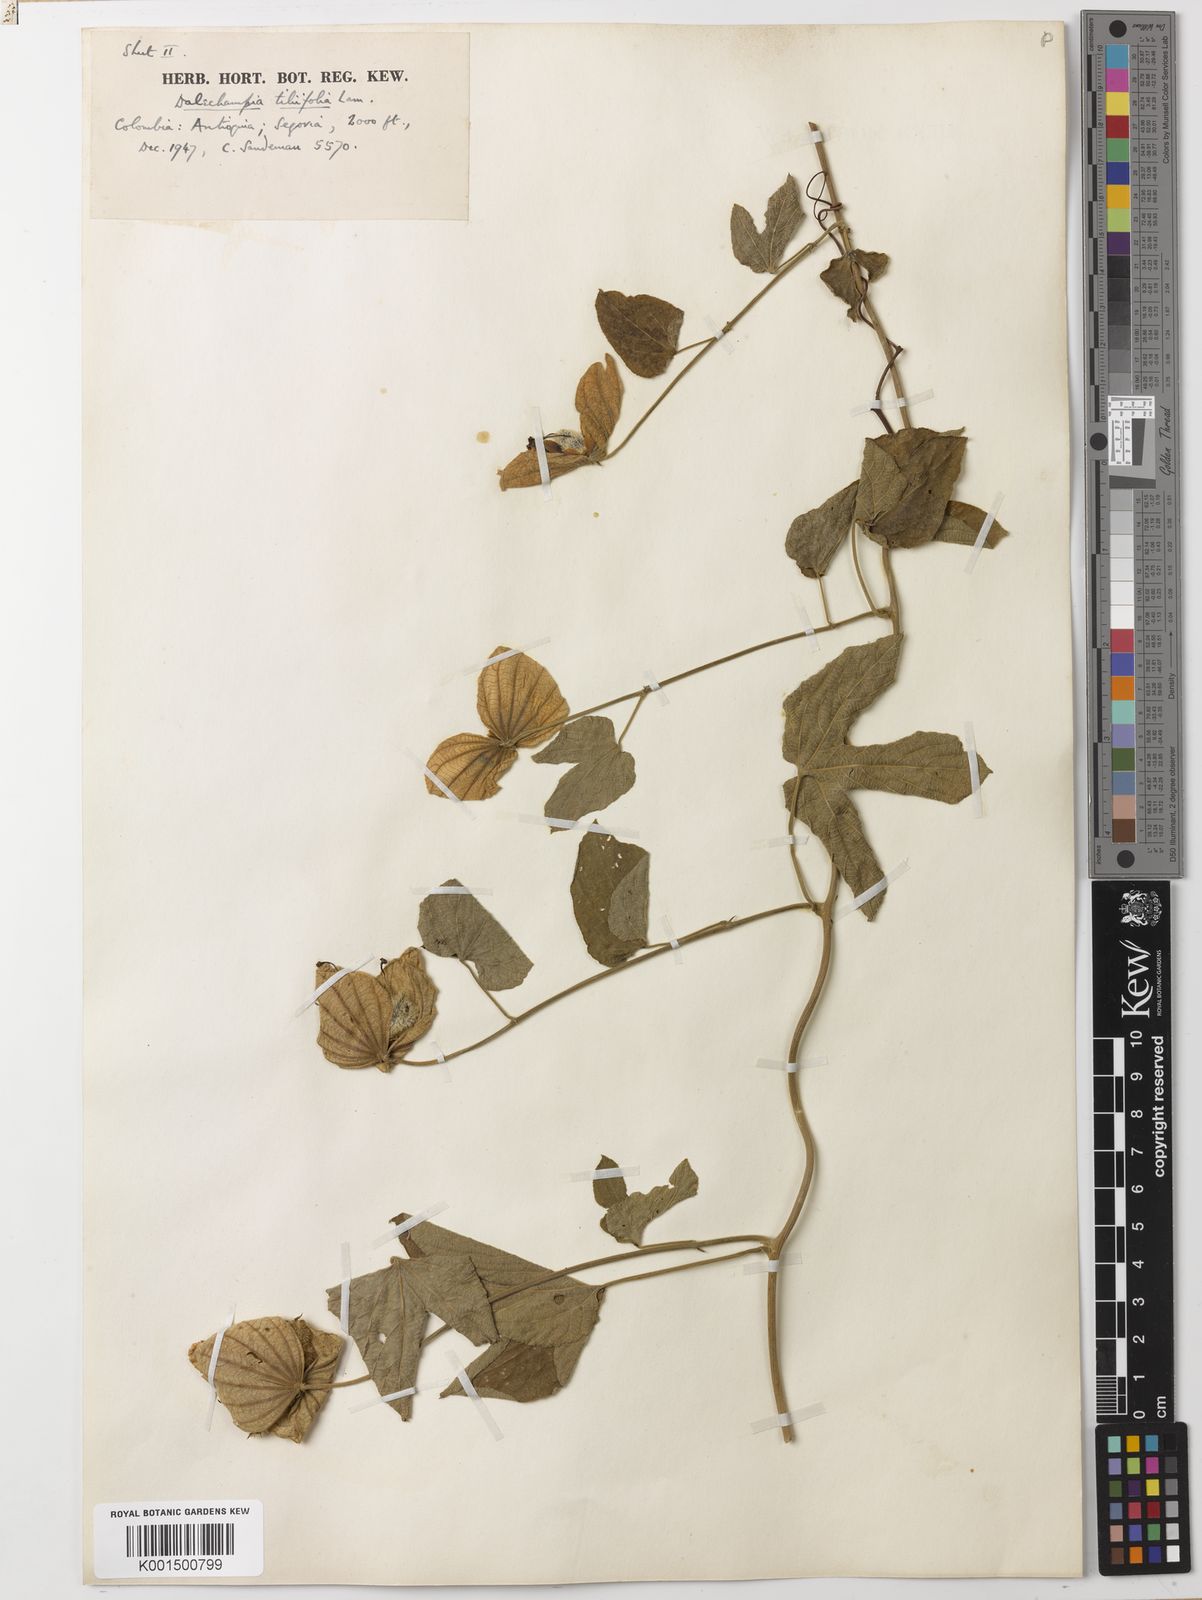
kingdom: Plantae
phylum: Tracheophyta
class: Magnoliopsida
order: Malpighiales
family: Euphorbiaceae
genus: Dalechampia
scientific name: Dalechampia tiliifolia
